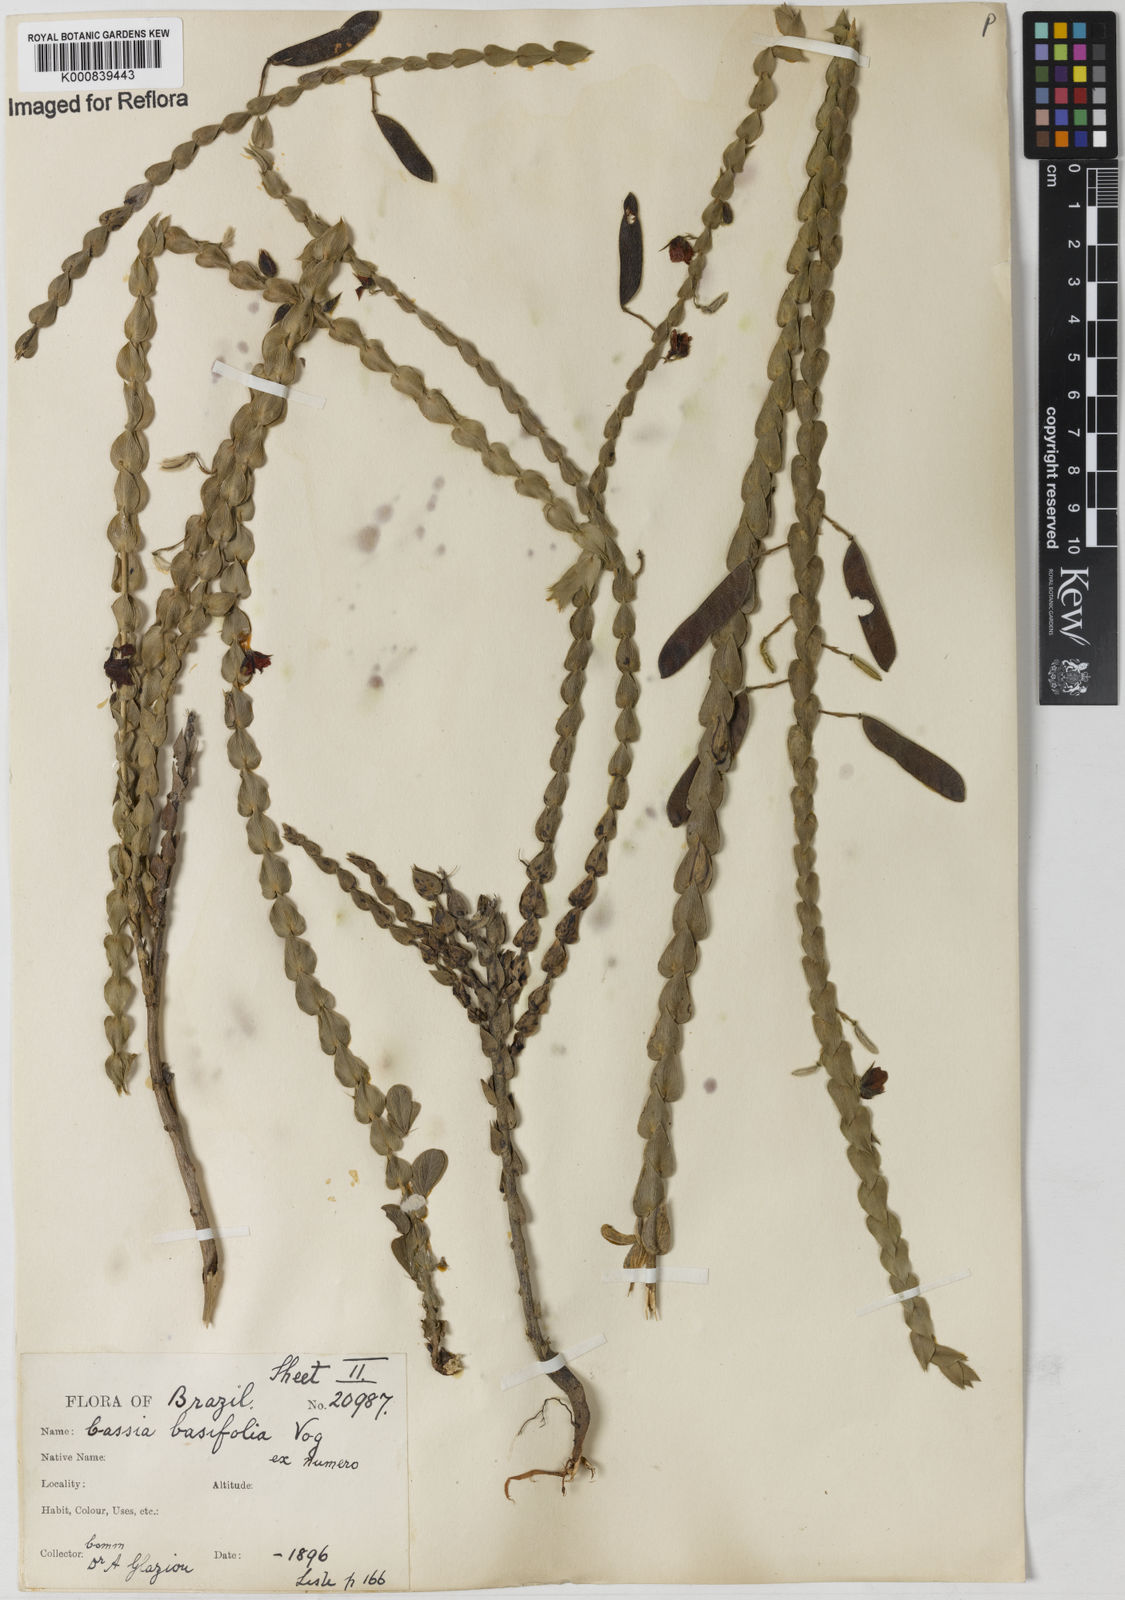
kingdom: Plantae
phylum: Tracheophyta
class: Magnoliopsida
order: Fabales
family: Fabaceae
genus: Chamaecrista
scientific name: Chamaecrista basifolia
